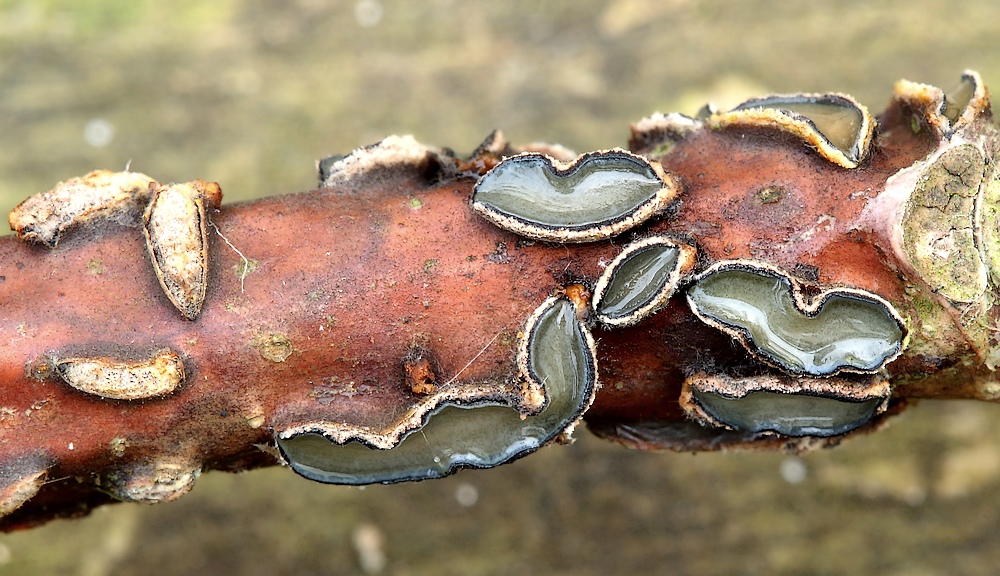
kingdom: Fungi
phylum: Ascomycota
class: Leotiomycetes
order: Rhytismatales
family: Rhytismataceae
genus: Colpoma
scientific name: Colpoma quercinum
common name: ege-sprækkeskive
